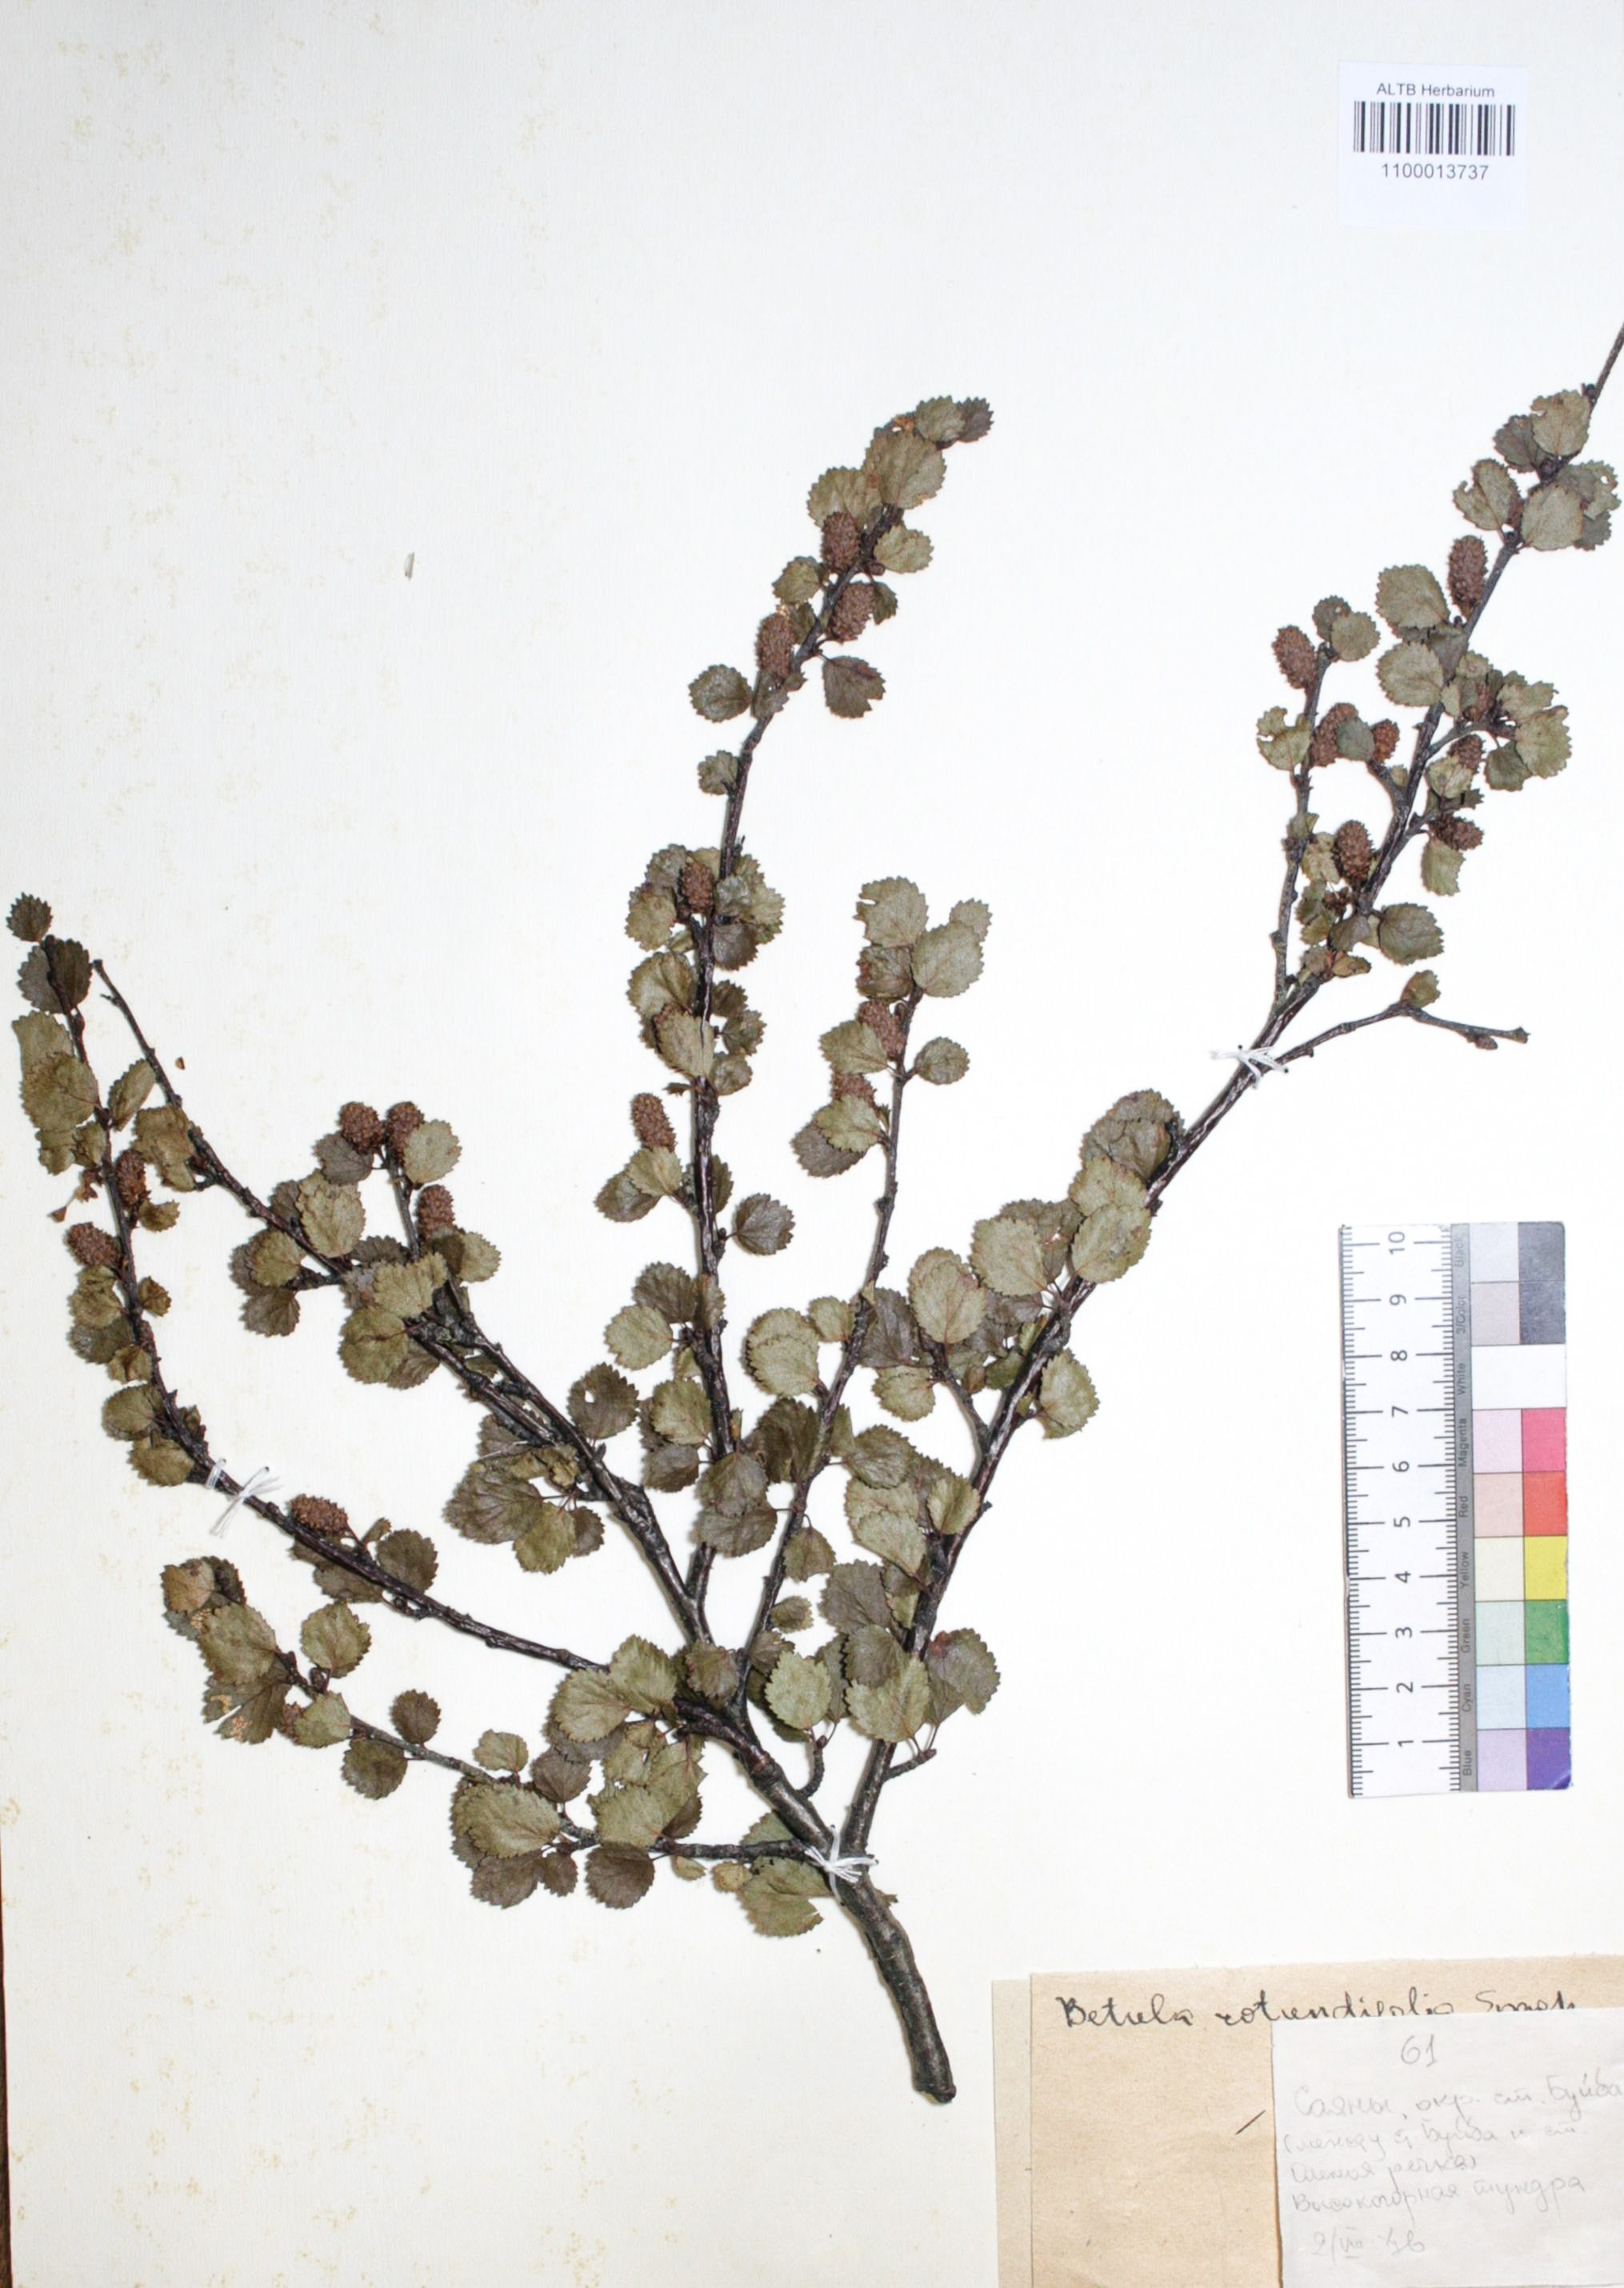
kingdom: Plantae
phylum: Tracheophyta
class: Magnoliopsida
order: Fagales
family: Betulaceae
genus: Betula
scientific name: Betula glandulosa
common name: Dwarf birch
